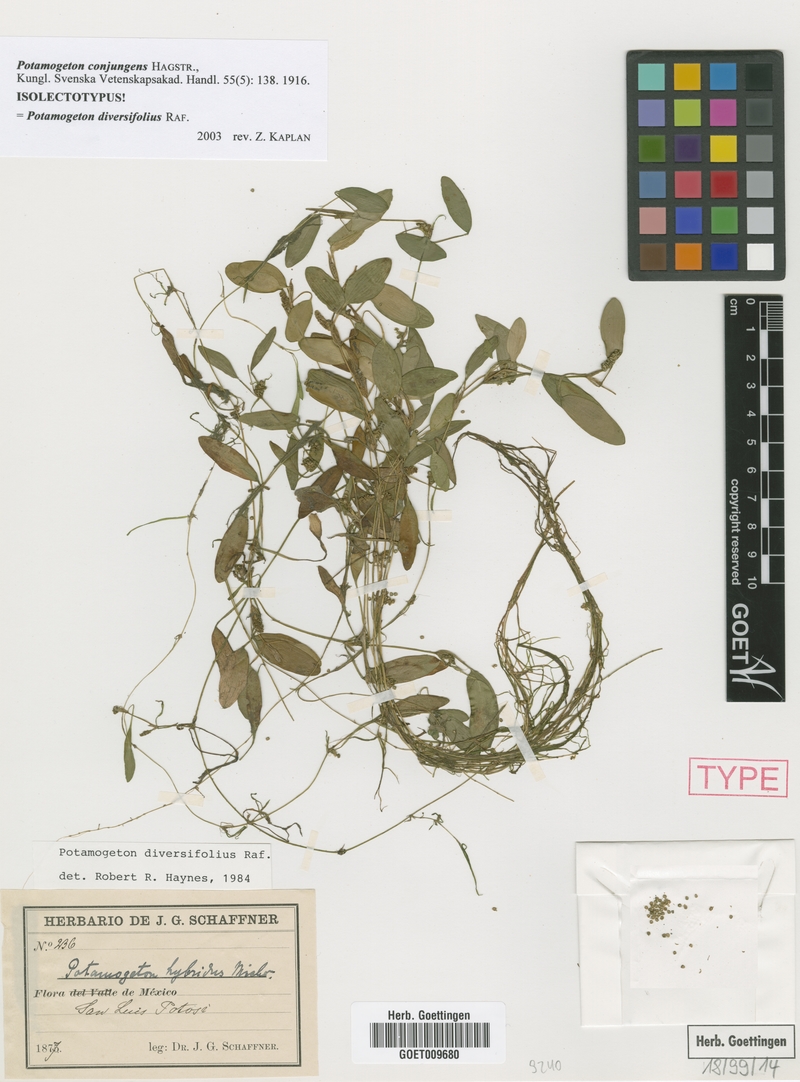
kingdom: Plantae
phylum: Tracheophyta
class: Liliopsida
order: Alismatales
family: Potamogetonaceae
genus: Potamogeton
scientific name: Potamogeton diversifolius
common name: Water-thread pondweed
